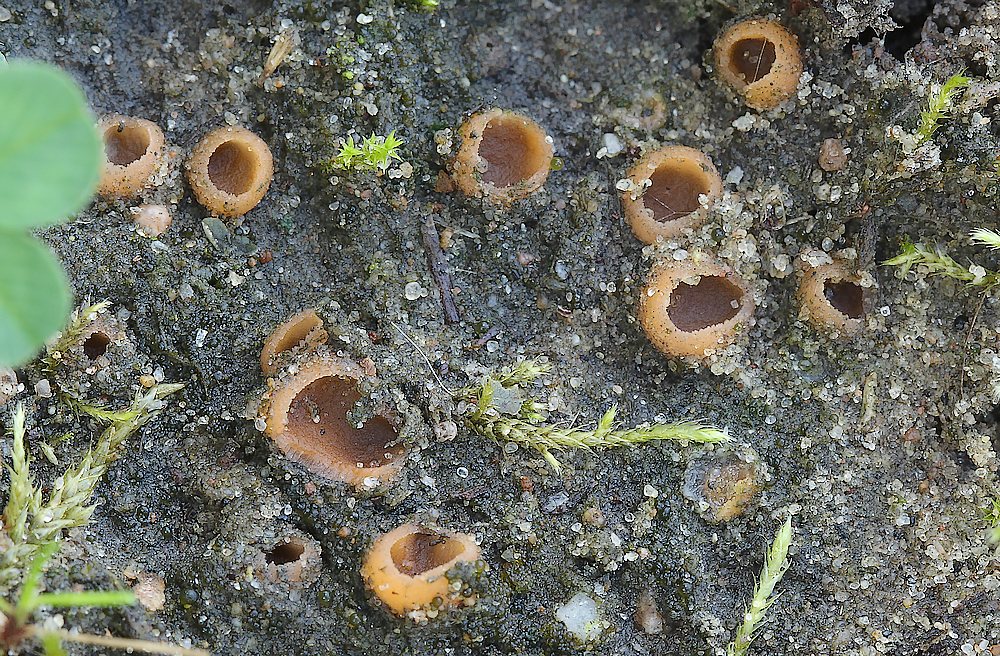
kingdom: Fungi
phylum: Ascomycota
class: Pezizomycetes
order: Pezizales
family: Pyronemataceae
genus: Geopora
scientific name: Geopora semi-immersa
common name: nedsænket børstebæger
